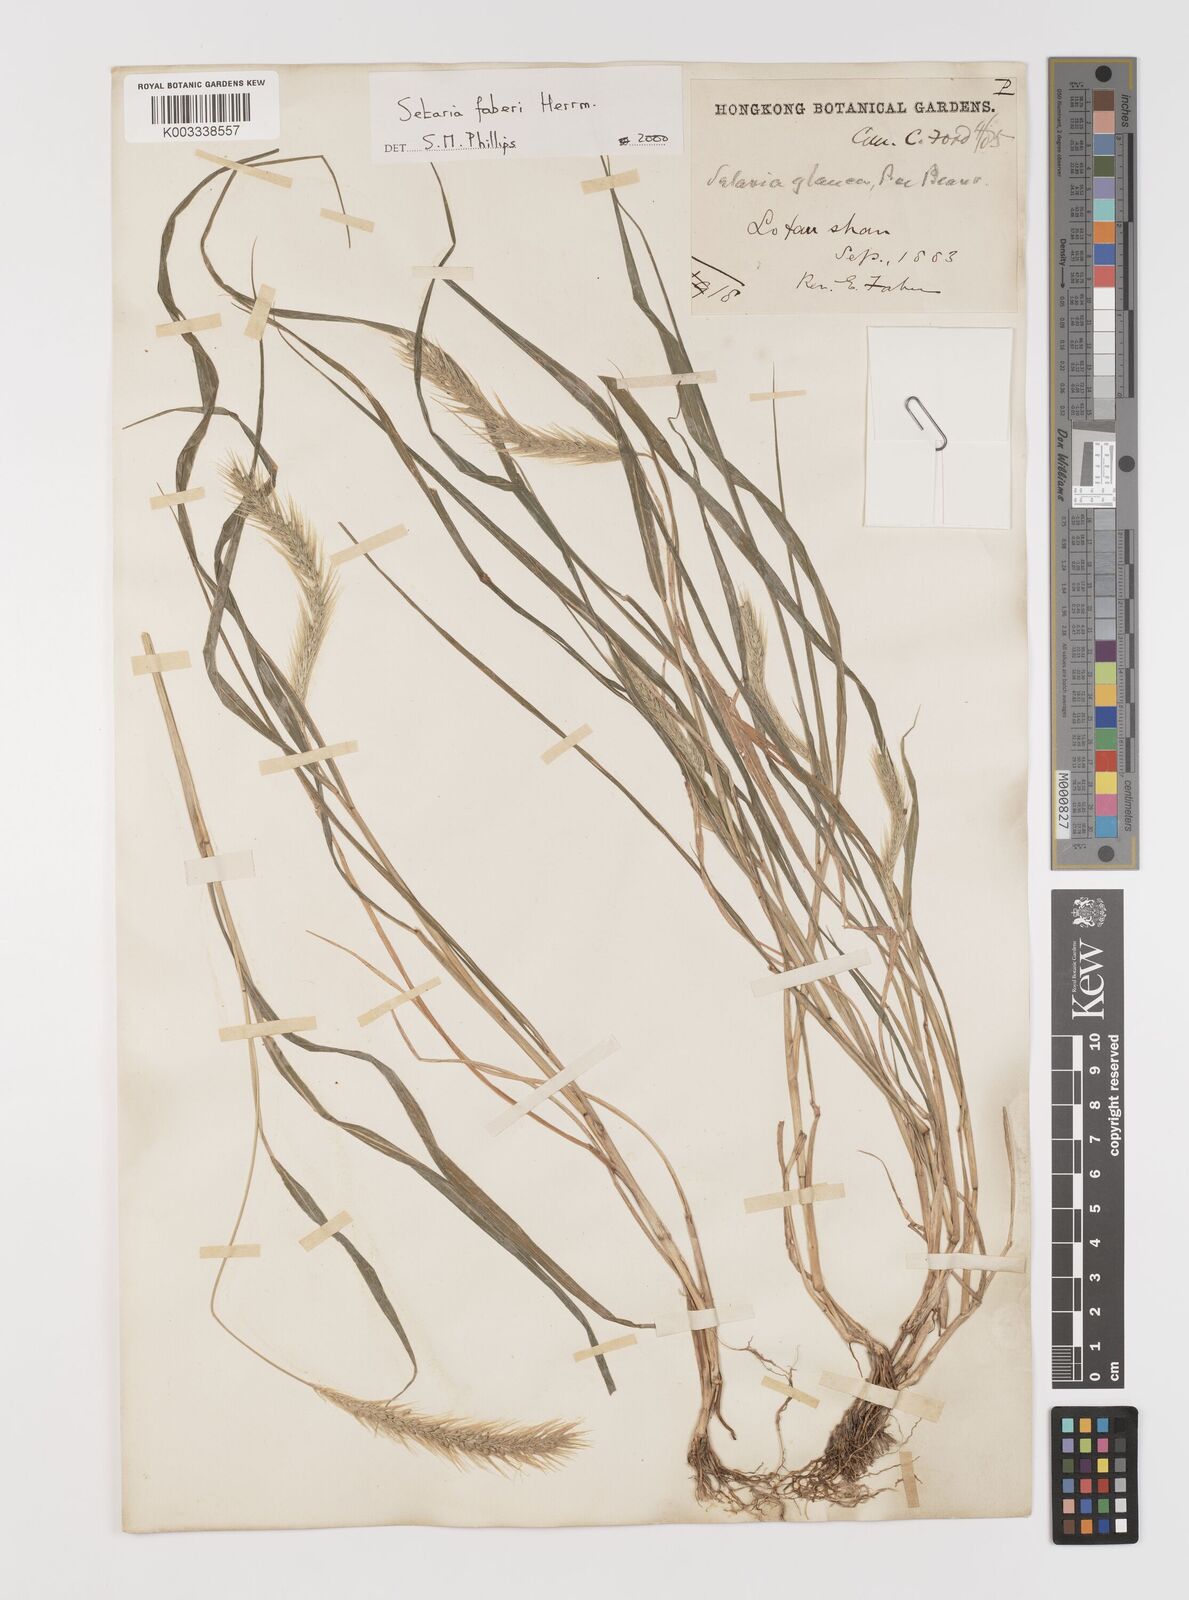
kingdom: Plantae
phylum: Tracheophyta
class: Liliopsida
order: Poales
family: Poaceae
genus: Setaria
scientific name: Setaria faberi
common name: Nodding bristle-grass
